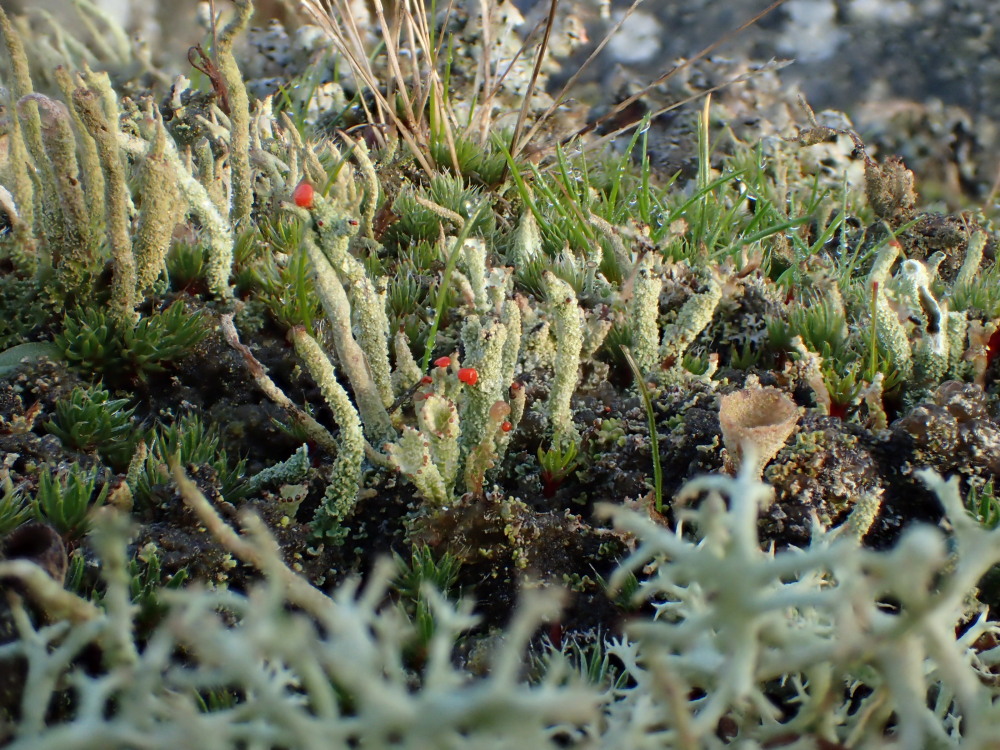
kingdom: Fungi
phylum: Ascomycota
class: Lecanoromycetes
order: Lecanorales
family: Cladoniaceae
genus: Cladonia
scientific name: Cladonia macilenta
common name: indsvunden bægerlav
